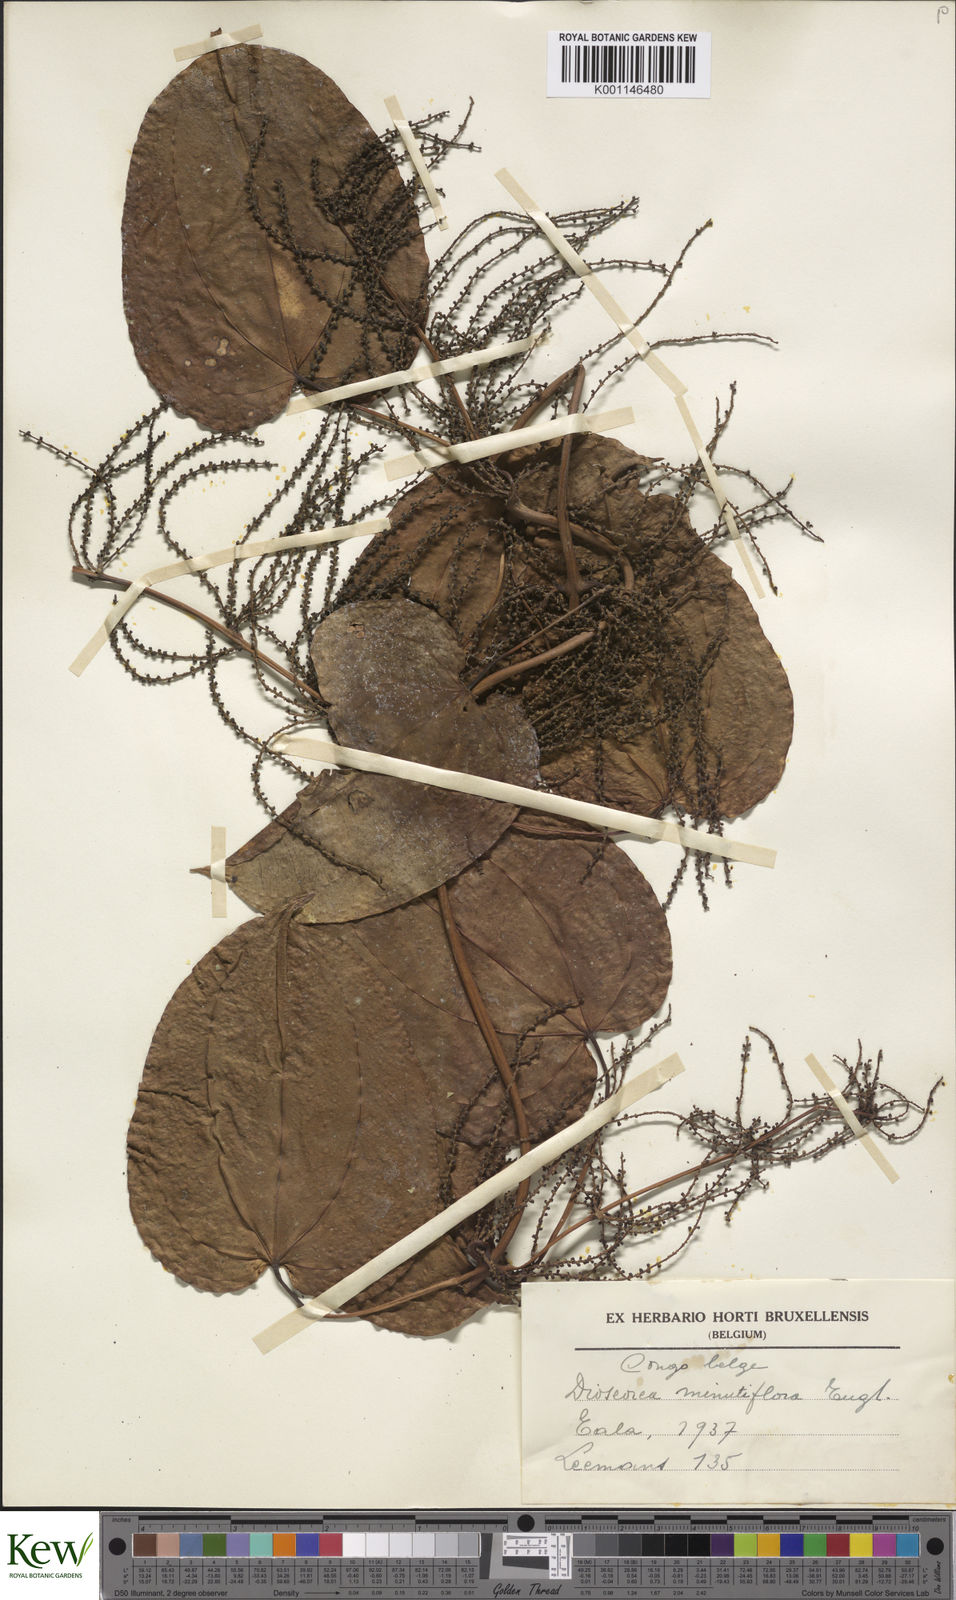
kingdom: Plantae
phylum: Tracheophyta
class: Liliopsida
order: Dioscoreales
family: Dioscoreaceae
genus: Dioscorea
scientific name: Dioscorea minutiflora
